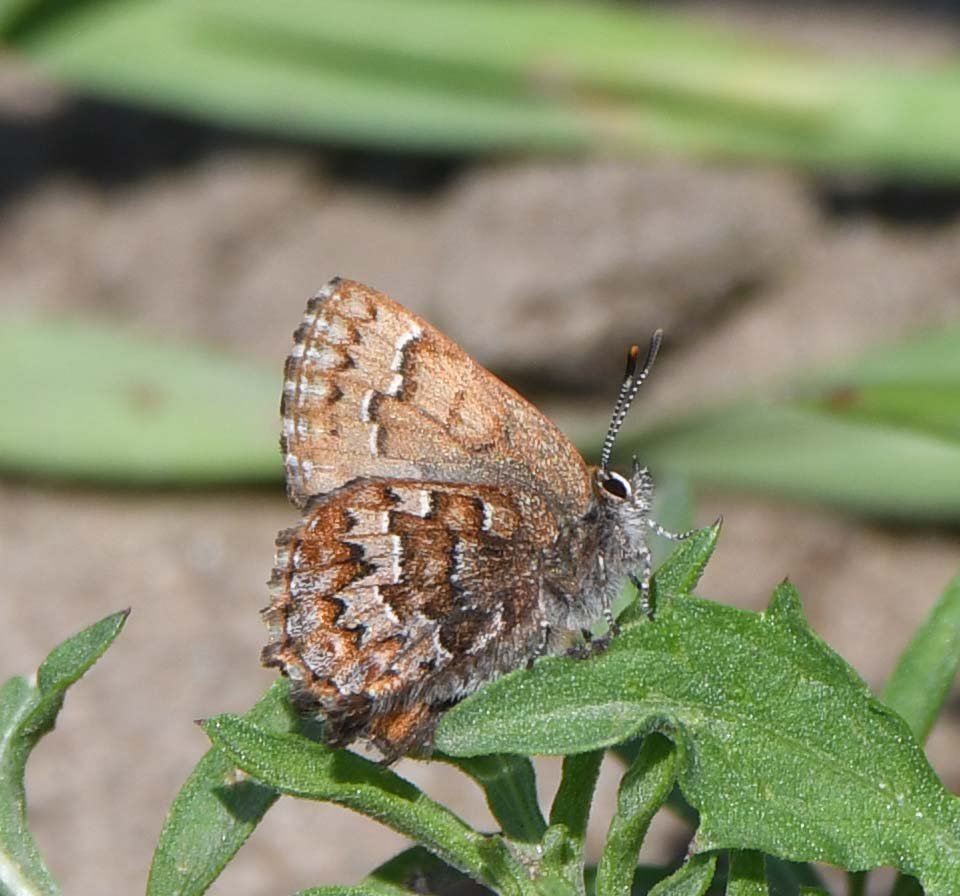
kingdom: Animalia
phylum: Arthropoda
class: Insecta
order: Lepidoptera
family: Lycaenidae
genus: Incisalia
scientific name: Incisalia niphon
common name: Eastern Pine Elfin
